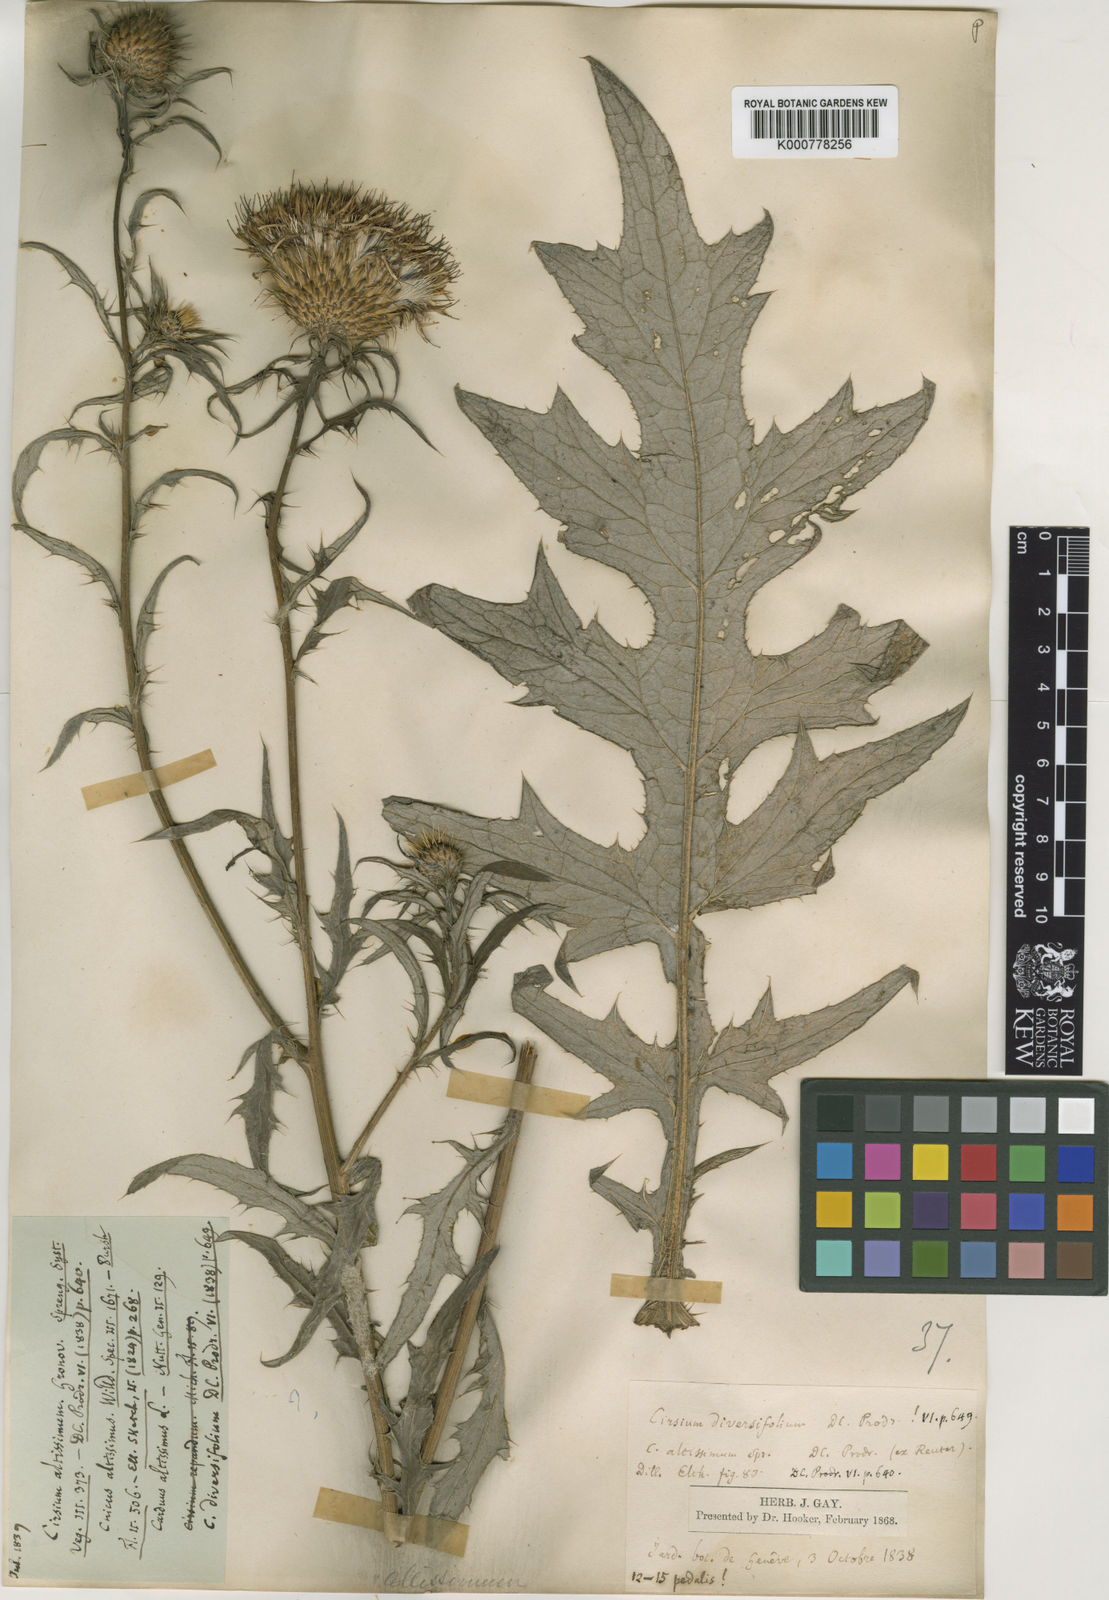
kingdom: Plantae
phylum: Tracheophyta
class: Magnoliopsida
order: Asterales
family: Asteraceae
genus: Cirsium
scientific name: Cirsium altissimum
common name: Roadside thistle
